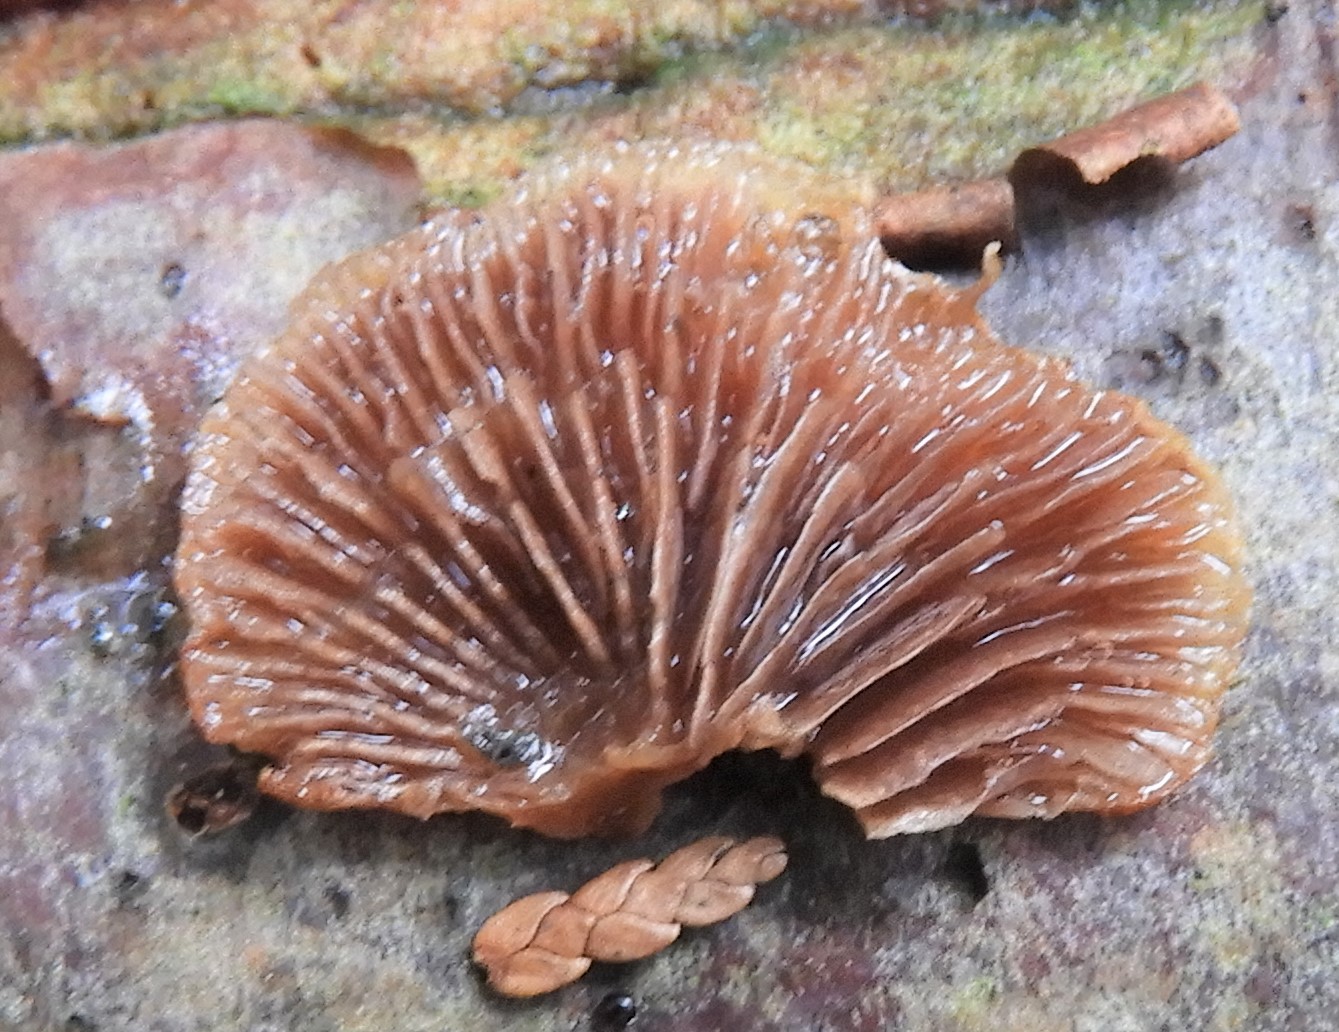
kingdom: Fungi
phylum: Basidiomycota
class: Agaricomycetes
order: Agaricales
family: Strophariaceae
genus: Deconica
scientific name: Deconica horizontalis
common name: ved-stråhat
